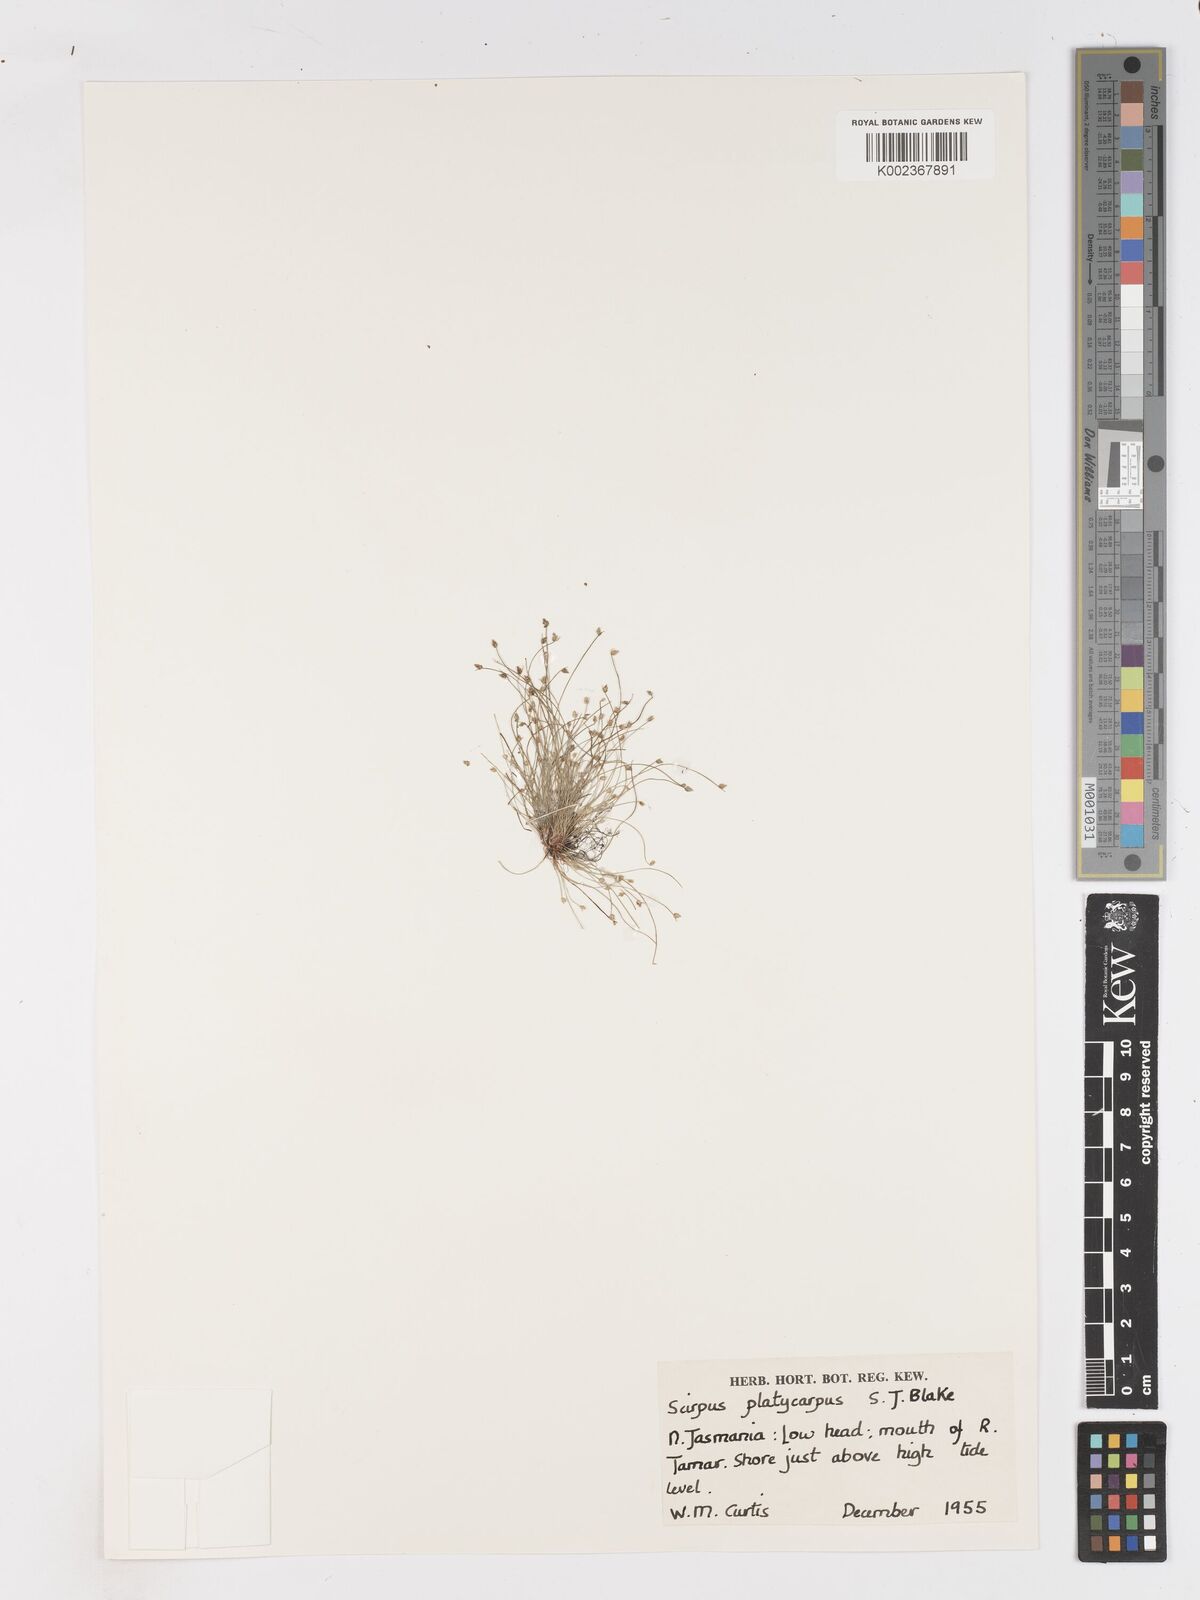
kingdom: Plantae
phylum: Tracheophyta
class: Liliopsida
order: Poales
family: Cyperaceae
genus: Isolepis
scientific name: Isolepis cernua
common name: Slender club-rush
